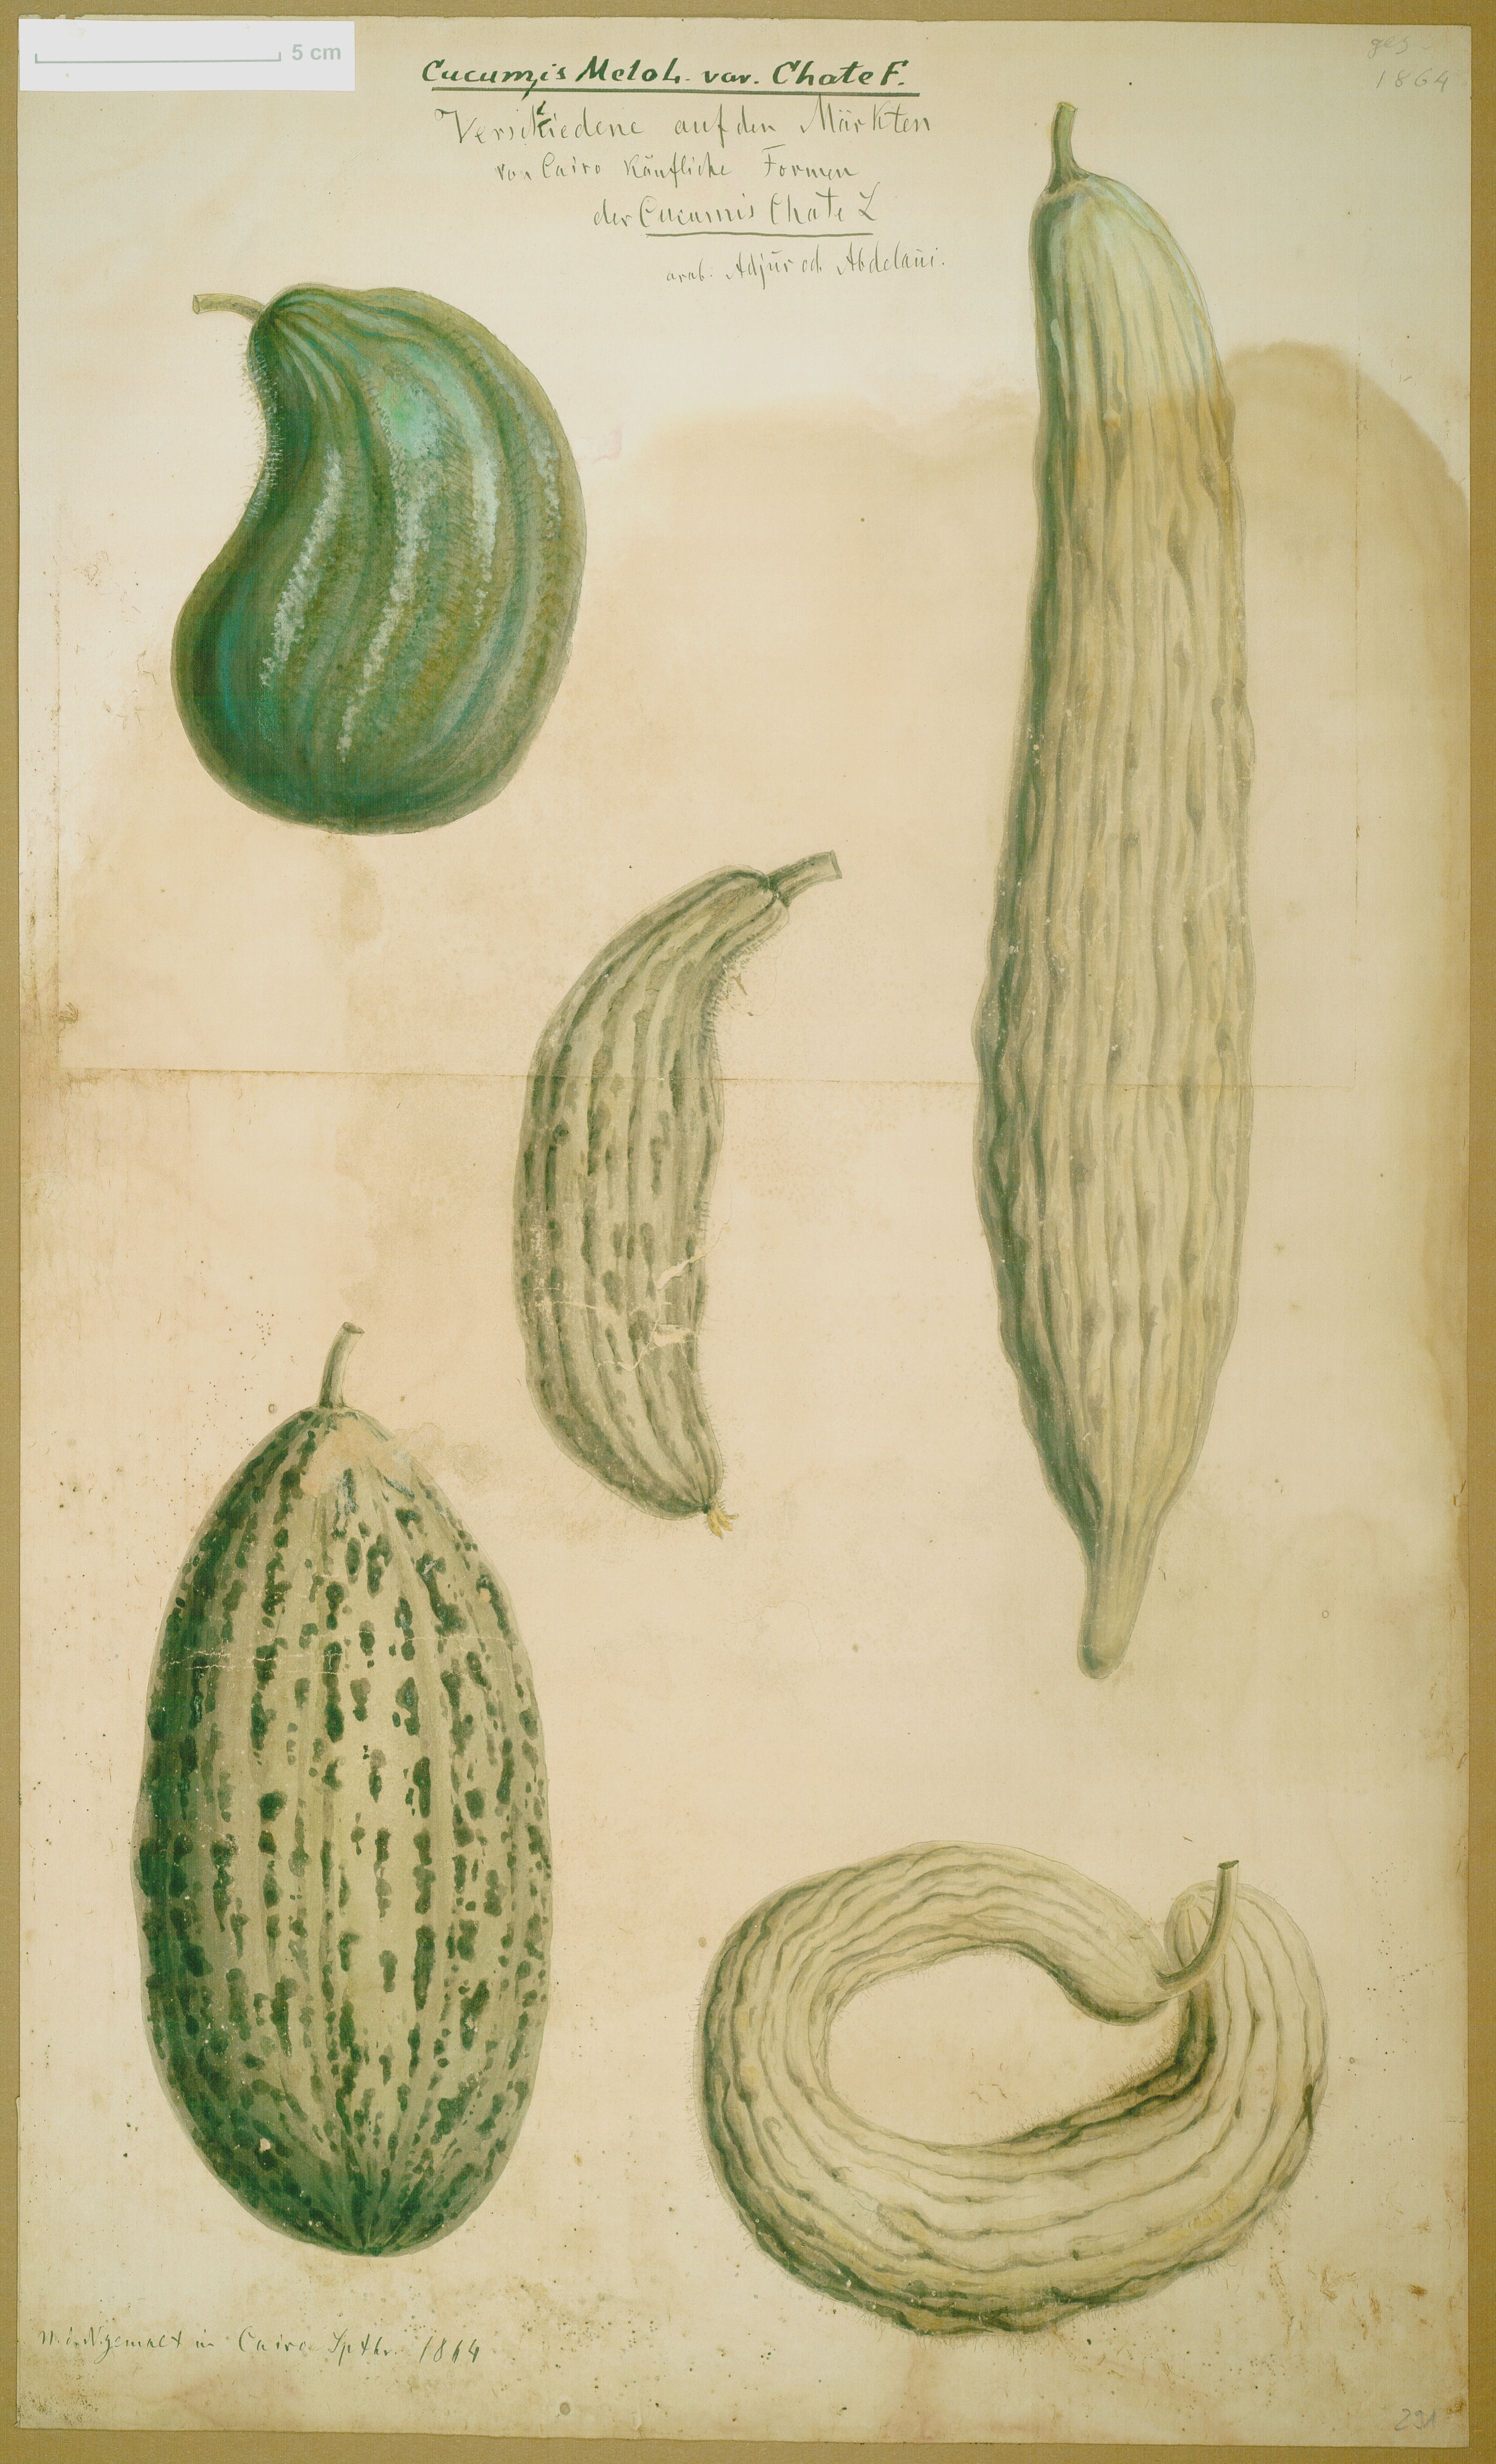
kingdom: Plantae
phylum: Tracheophyta
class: Magnoliopsida
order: Cucurbitales
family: Cucurbitaceae
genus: Cucumis
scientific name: Cucumis melo
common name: Melon
